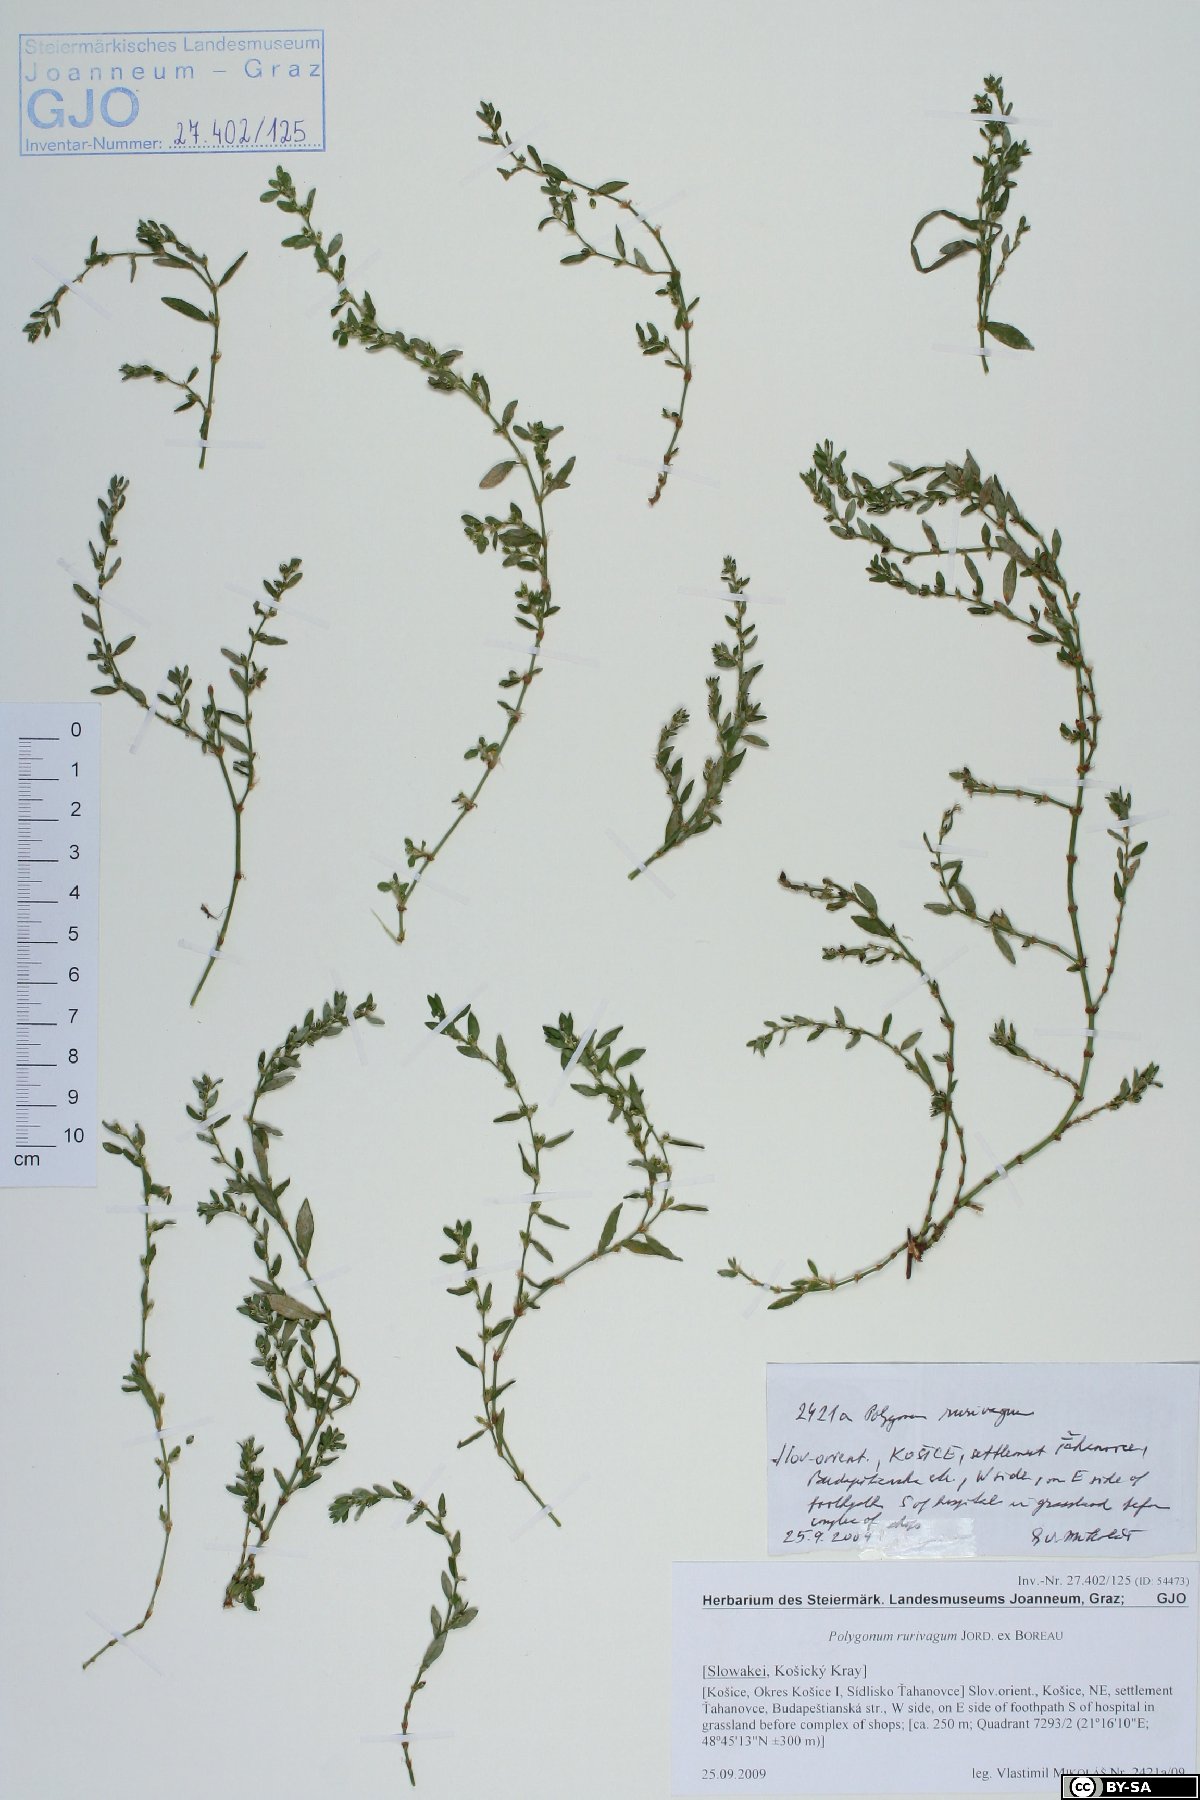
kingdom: Plantae
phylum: Tracheophyta
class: Magnoliopsida
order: Caryophyllales
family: Polygonaceae
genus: Polygonum
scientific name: Polygonum aviculare
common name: Prostrate knotweed
